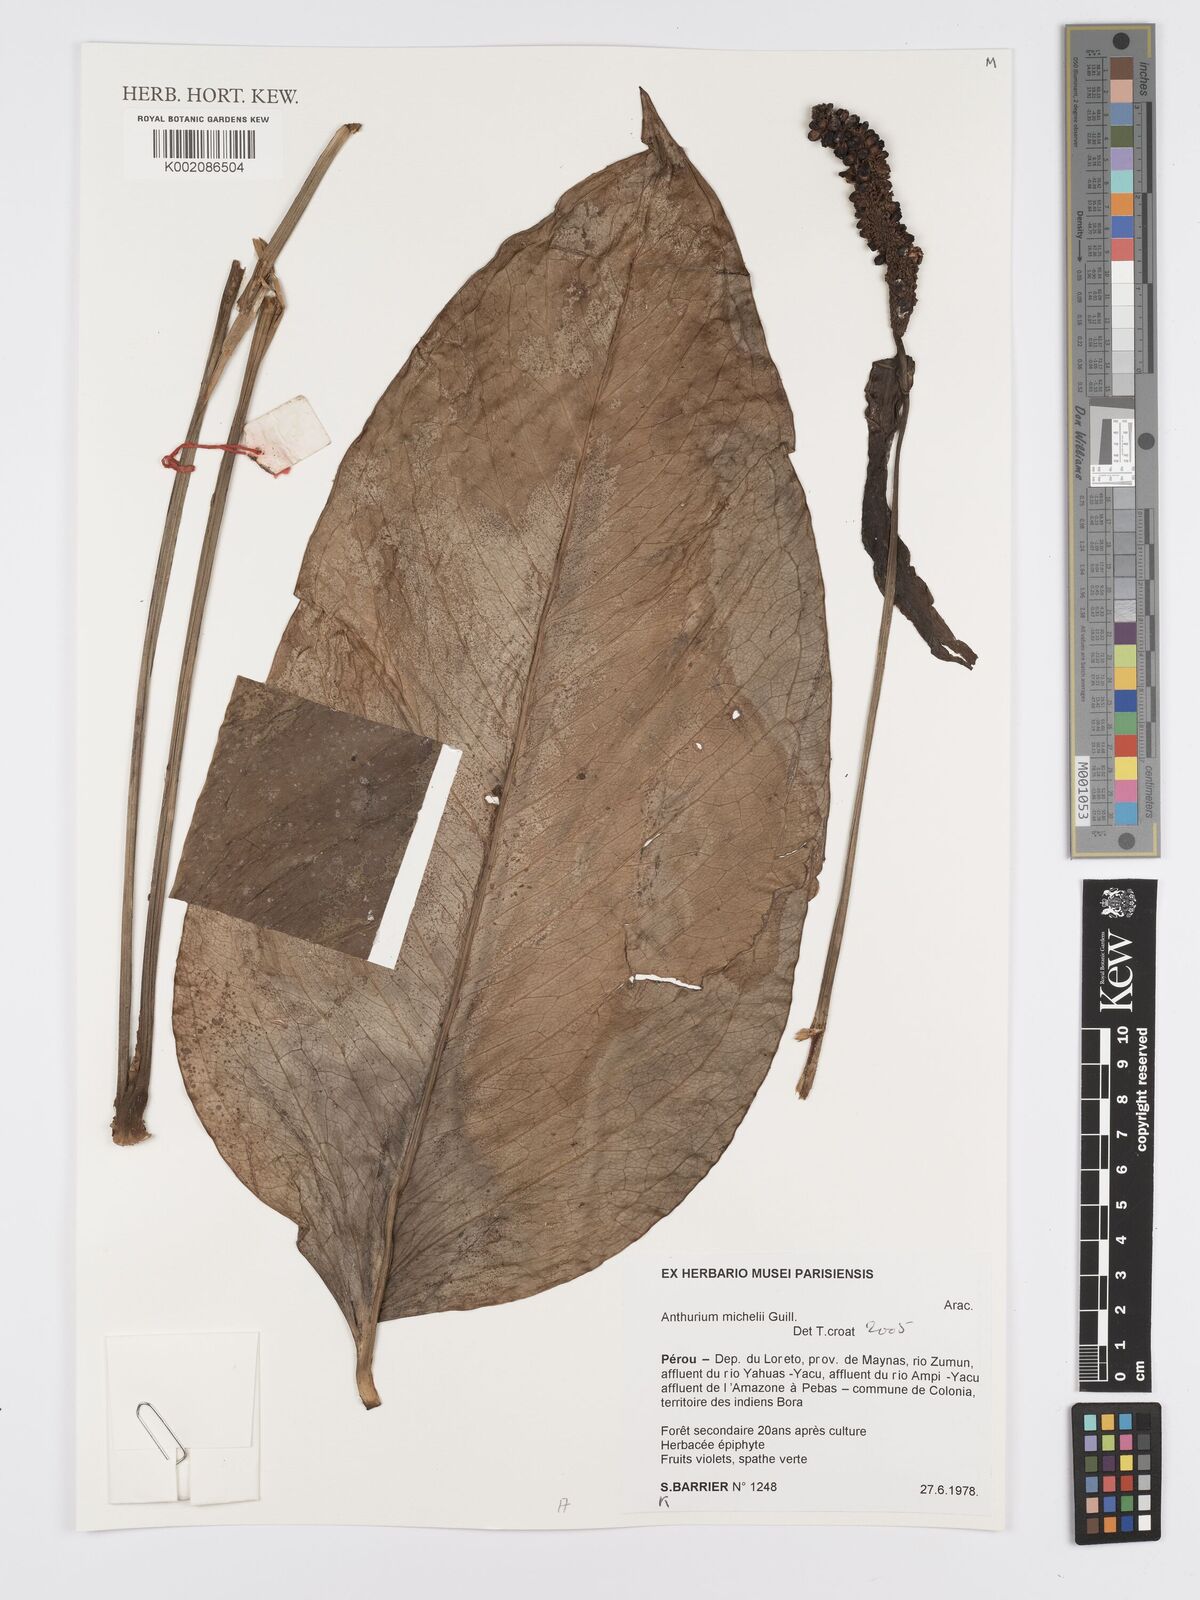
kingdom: Plantae
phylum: Tracheophyta
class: Liliopsida
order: Alismatales
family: Araceae
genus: Anthurium
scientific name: Anthurium michelii
